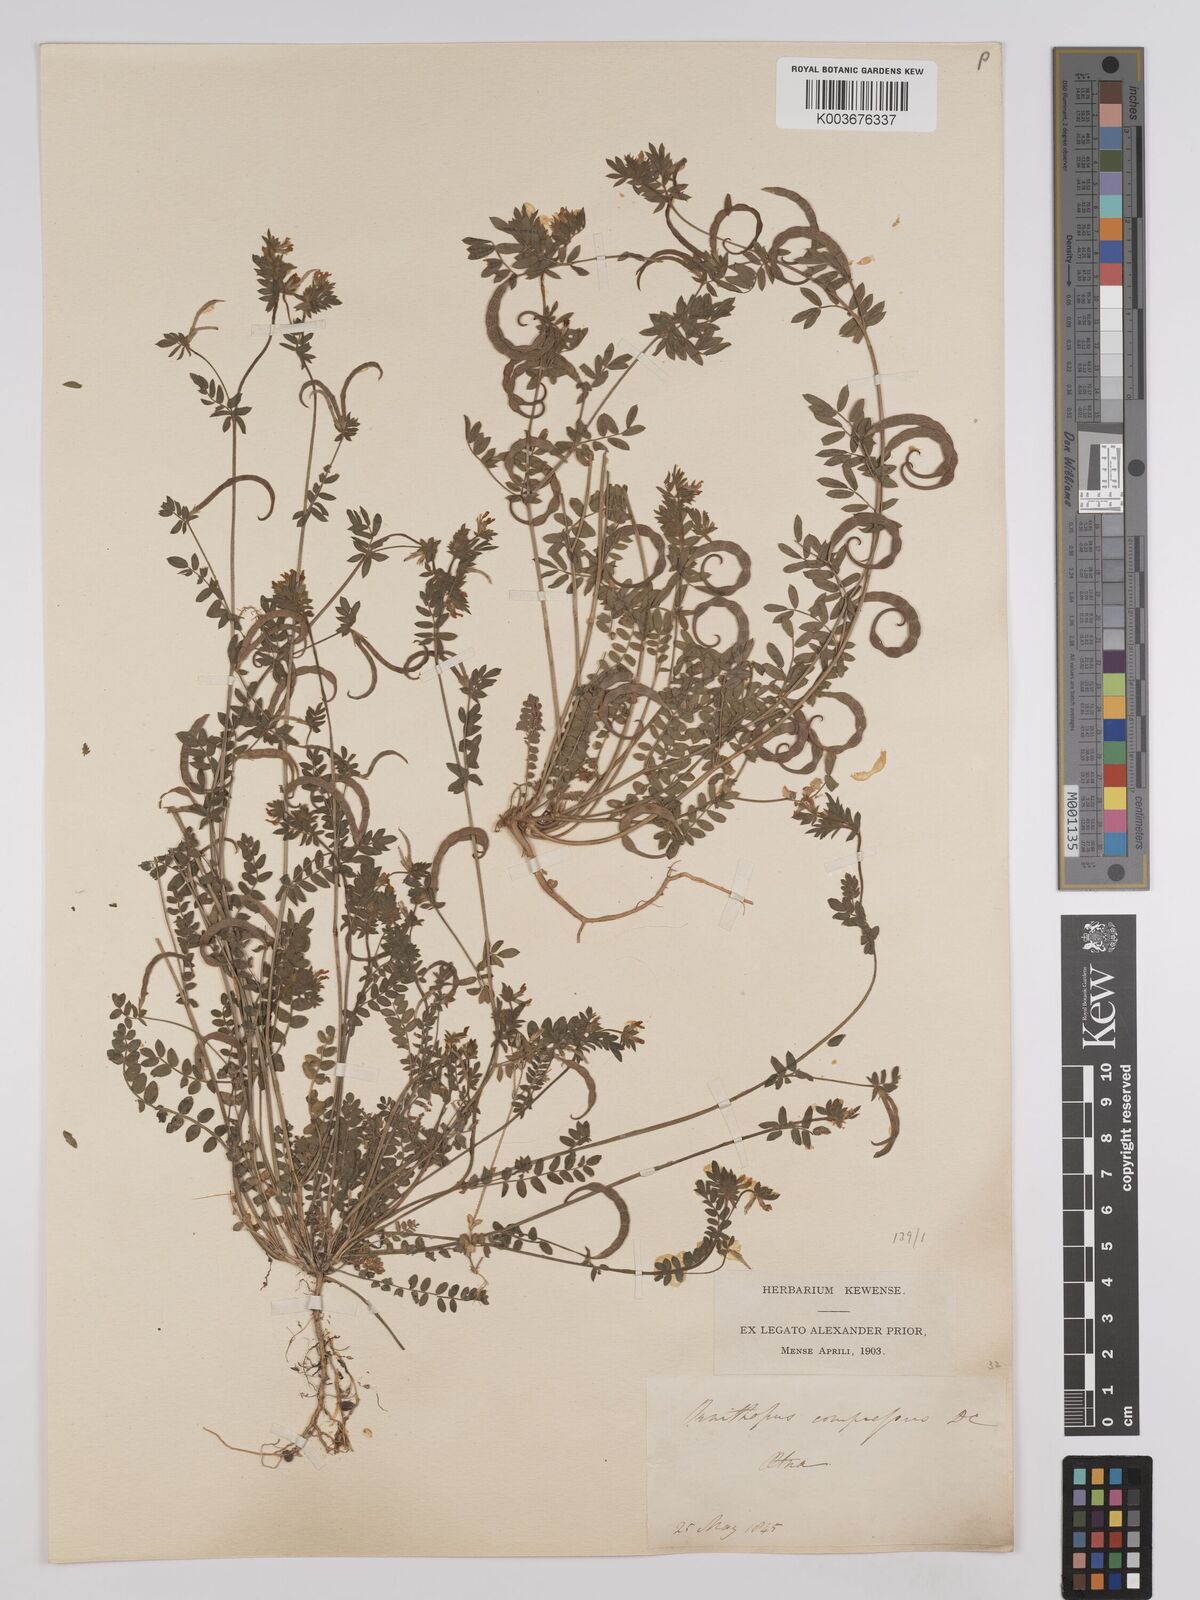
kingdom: Plantae
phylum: Tracheophyta
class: Magnoliopsida
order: Fabales
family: Fabaceae
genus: Ornithopus
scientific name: Ornithopus compressus
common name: Yellow serradella
